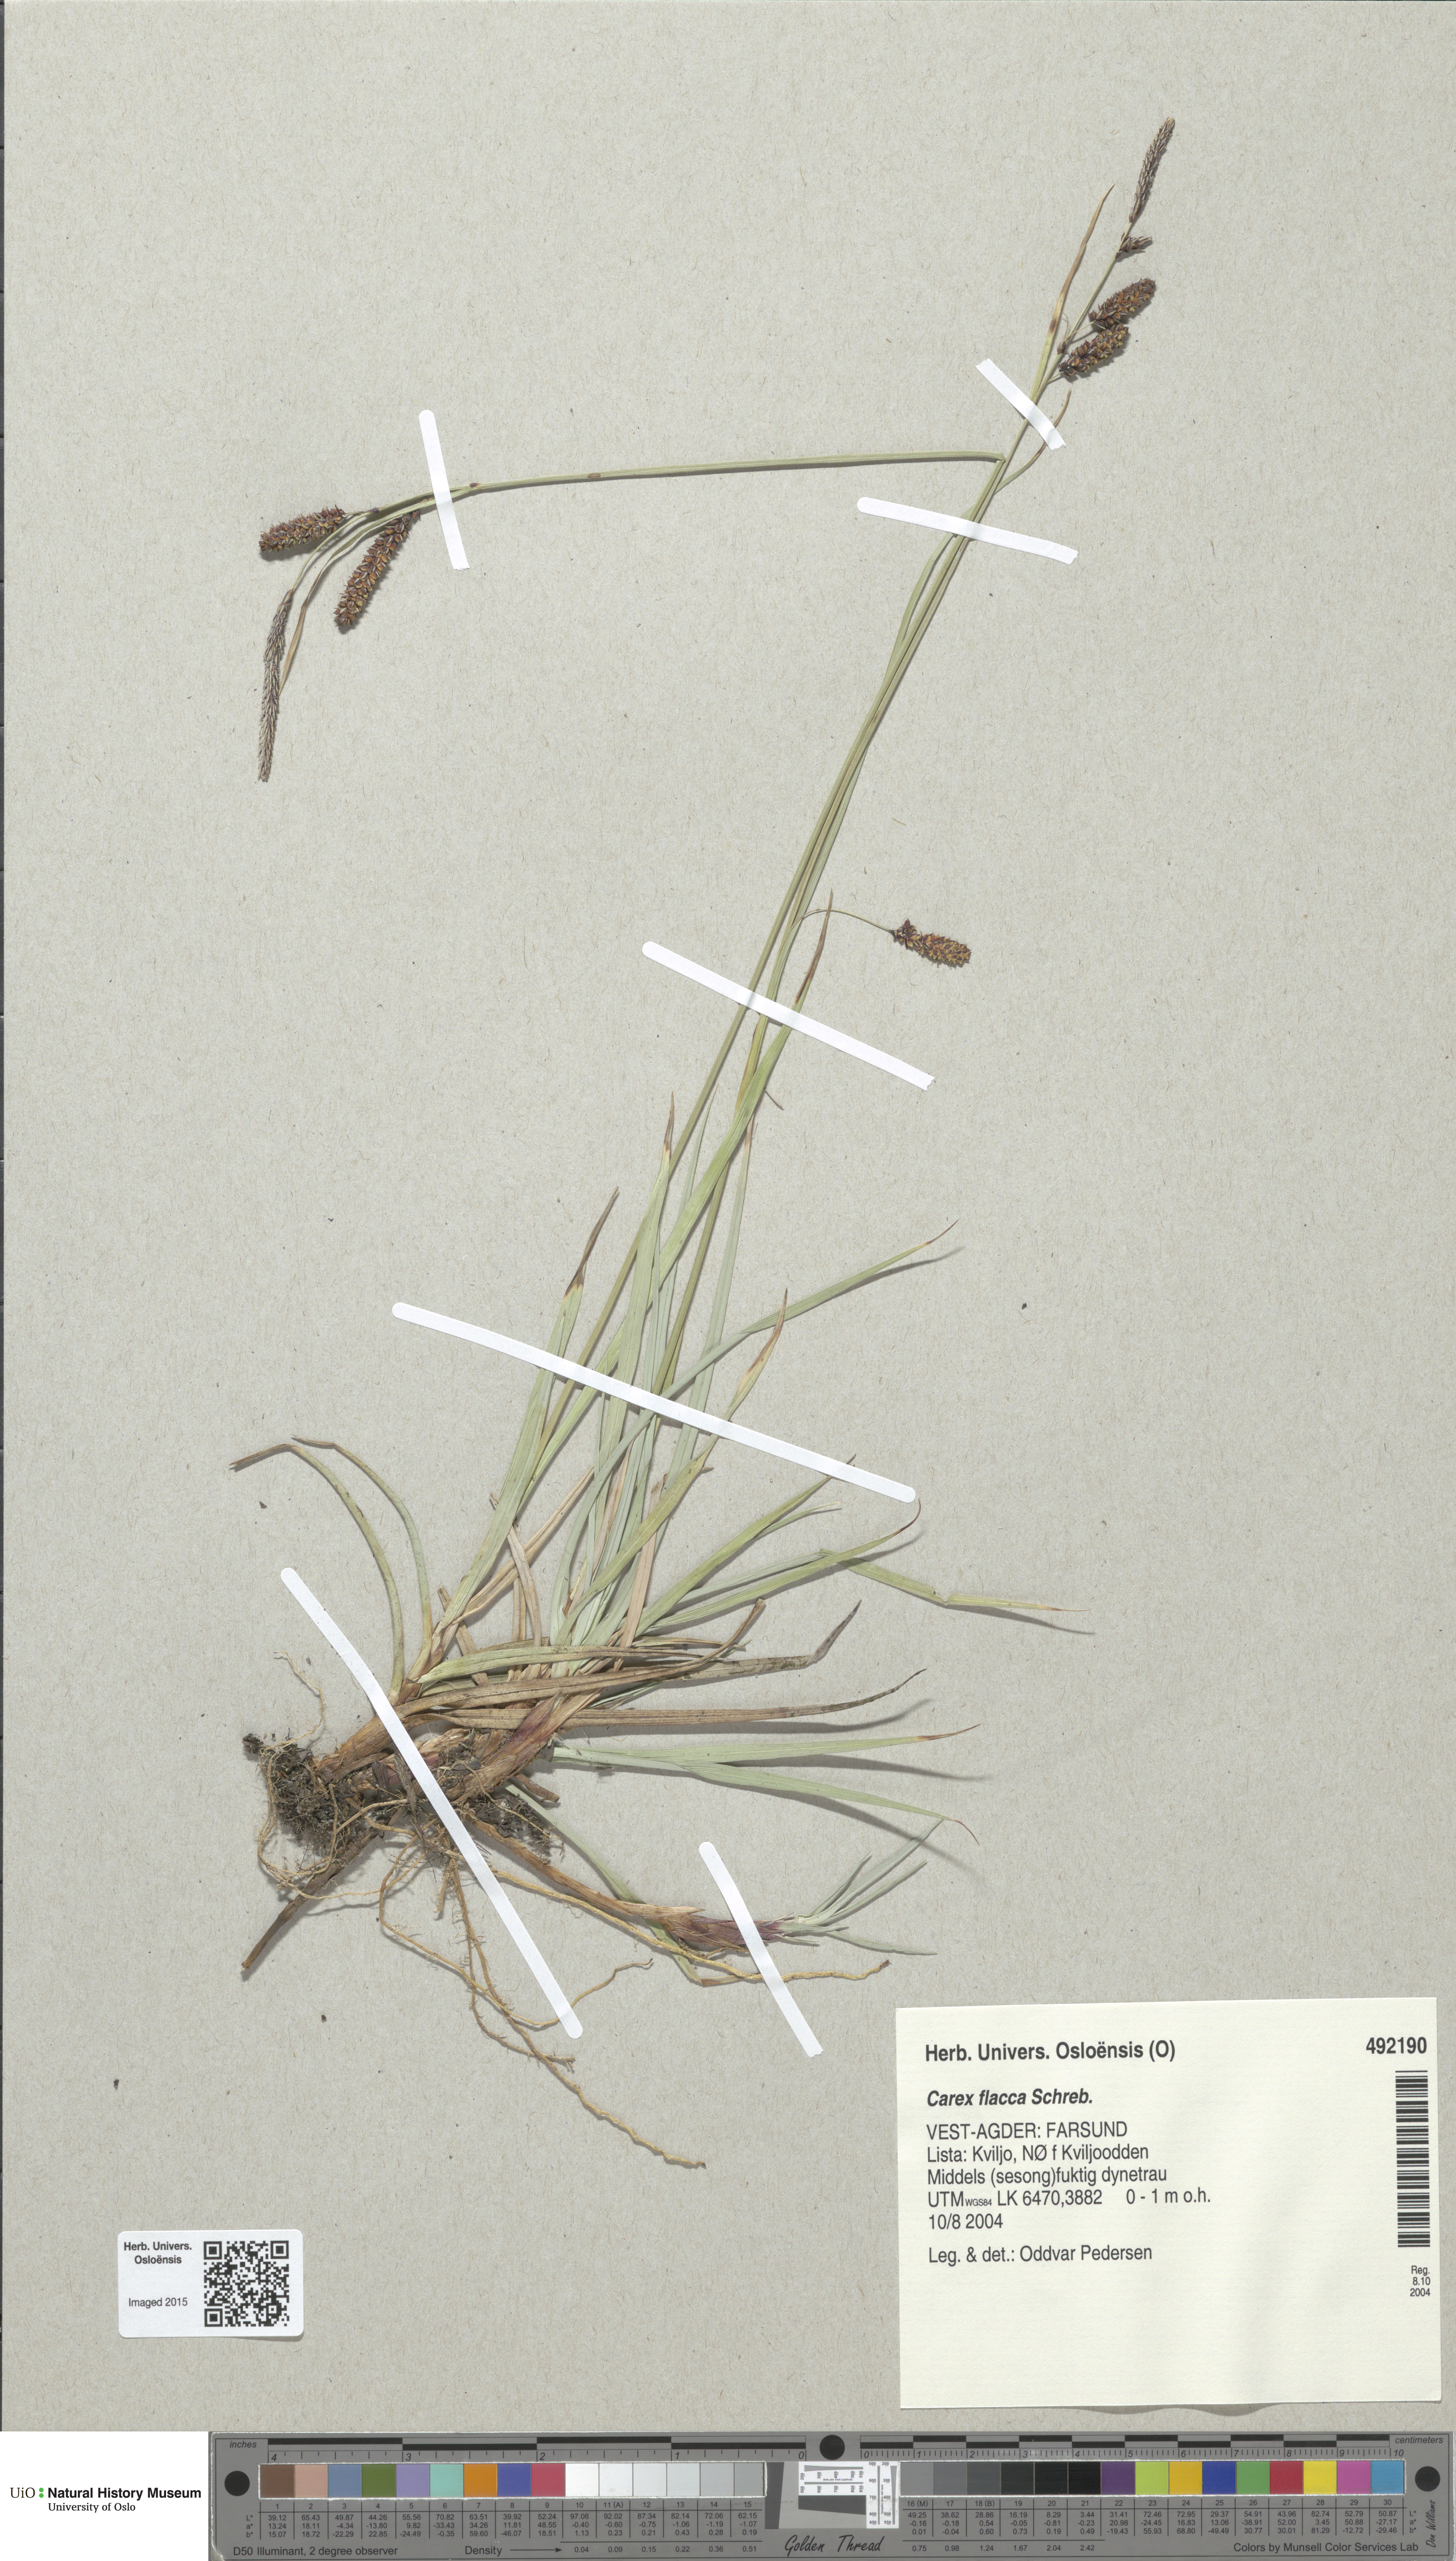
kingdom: Plantae
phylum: Tracheophyta
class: Liliopsida
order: Poales
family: Cyperaceae
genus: Carex
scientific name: Carex flacca
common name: Glaucous sedge
